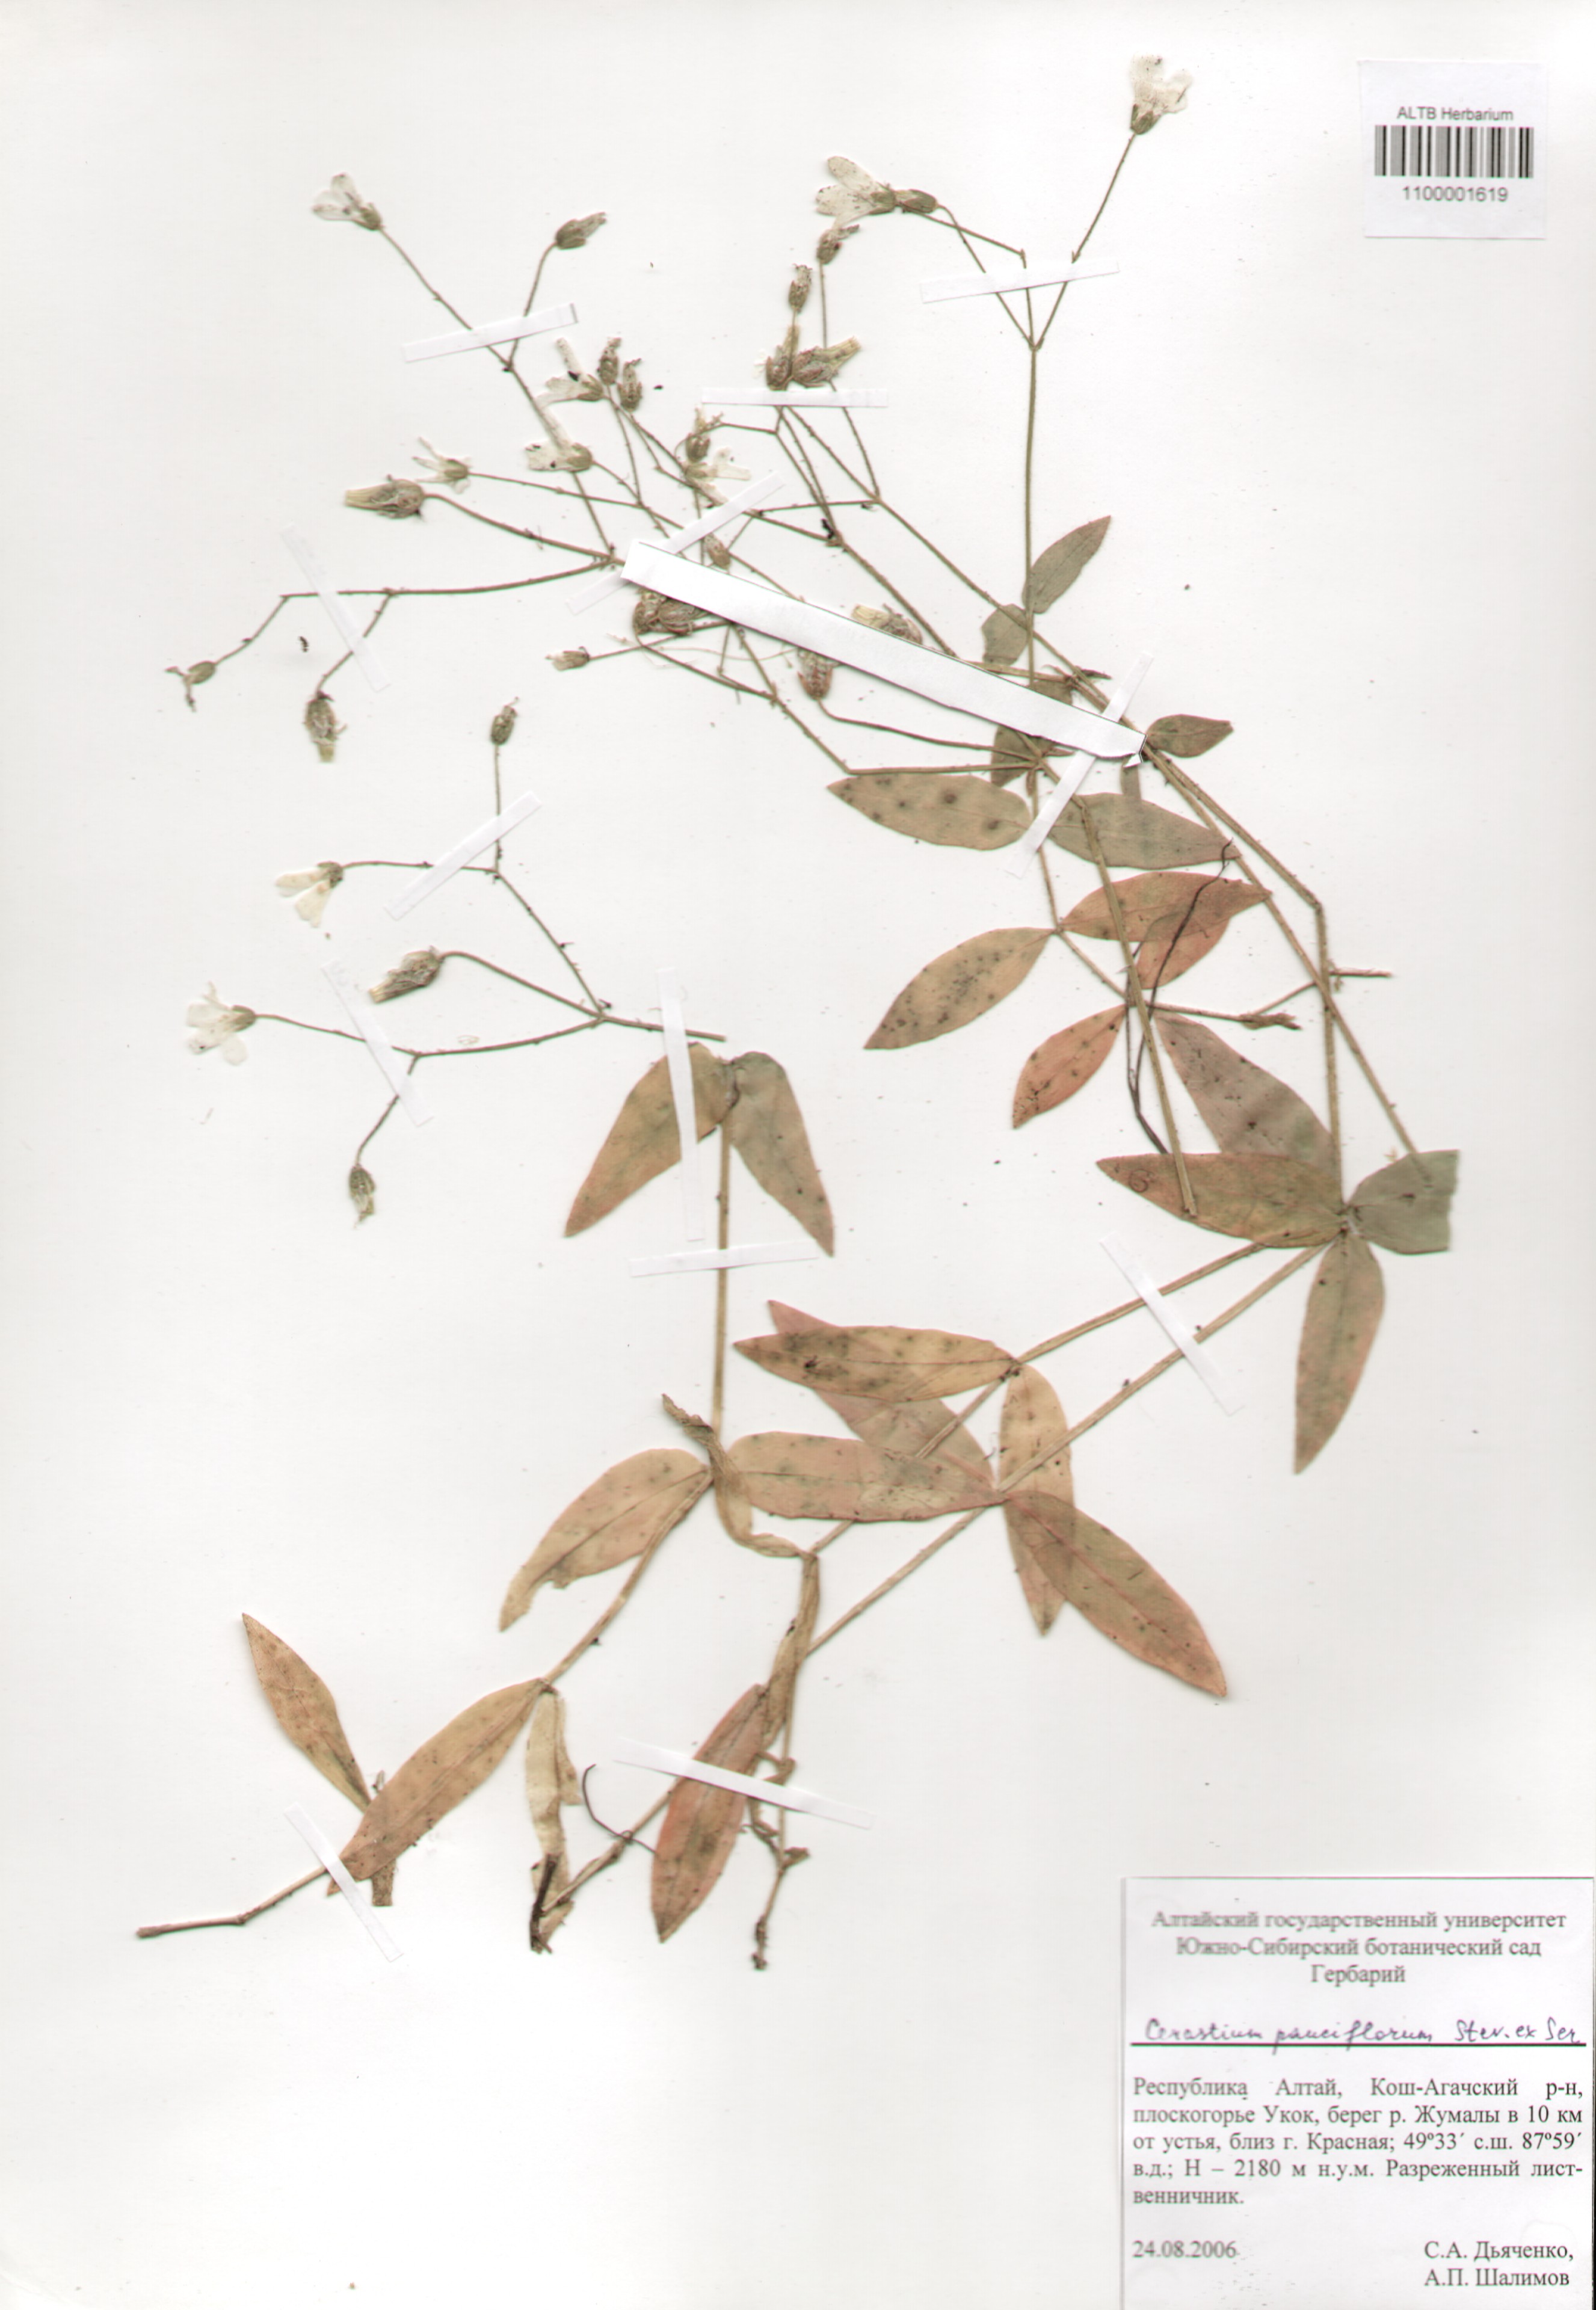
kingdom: Plantae
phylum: Tracheophyta
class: Magnoliopsida
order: Caryophyllales
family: Caryophyllaceae
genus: Cerastium
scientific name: Cerastium pauciflorum
